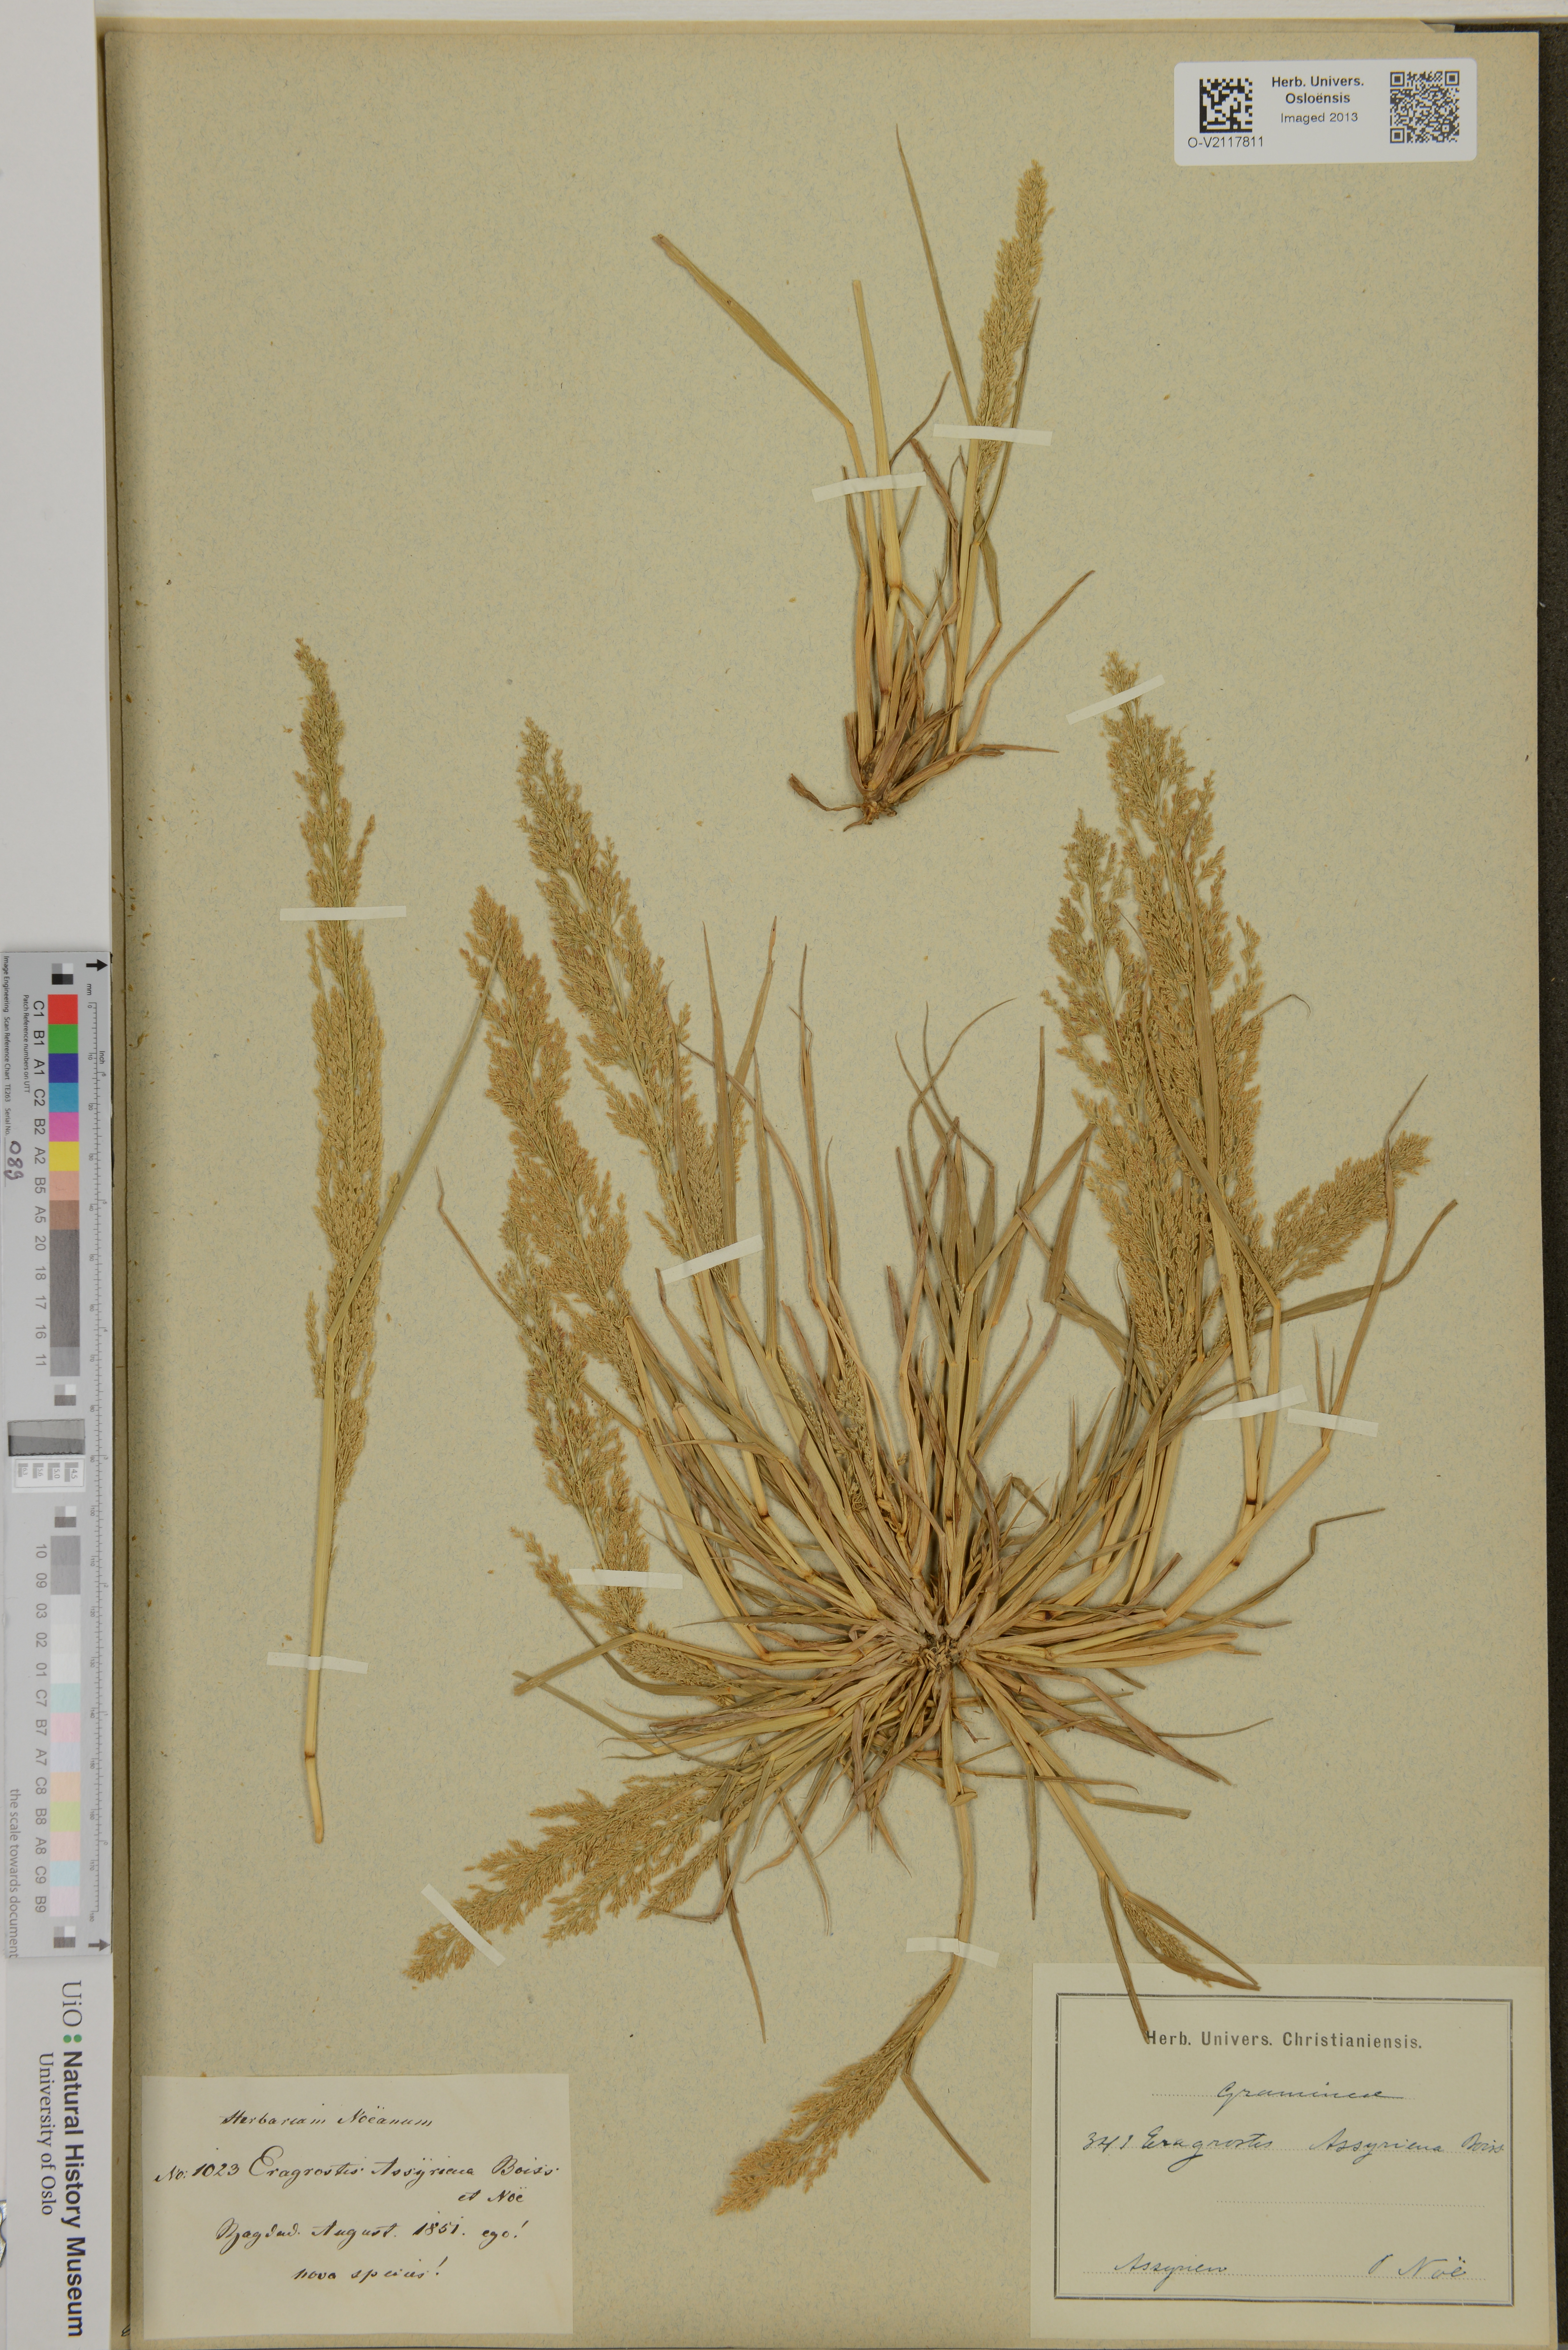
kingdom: Plantae
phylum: Tracheophyta
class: Liliopsida
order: Poales
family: Poaceae
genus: Eragrostis
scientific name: Eragrostis assyriaca
